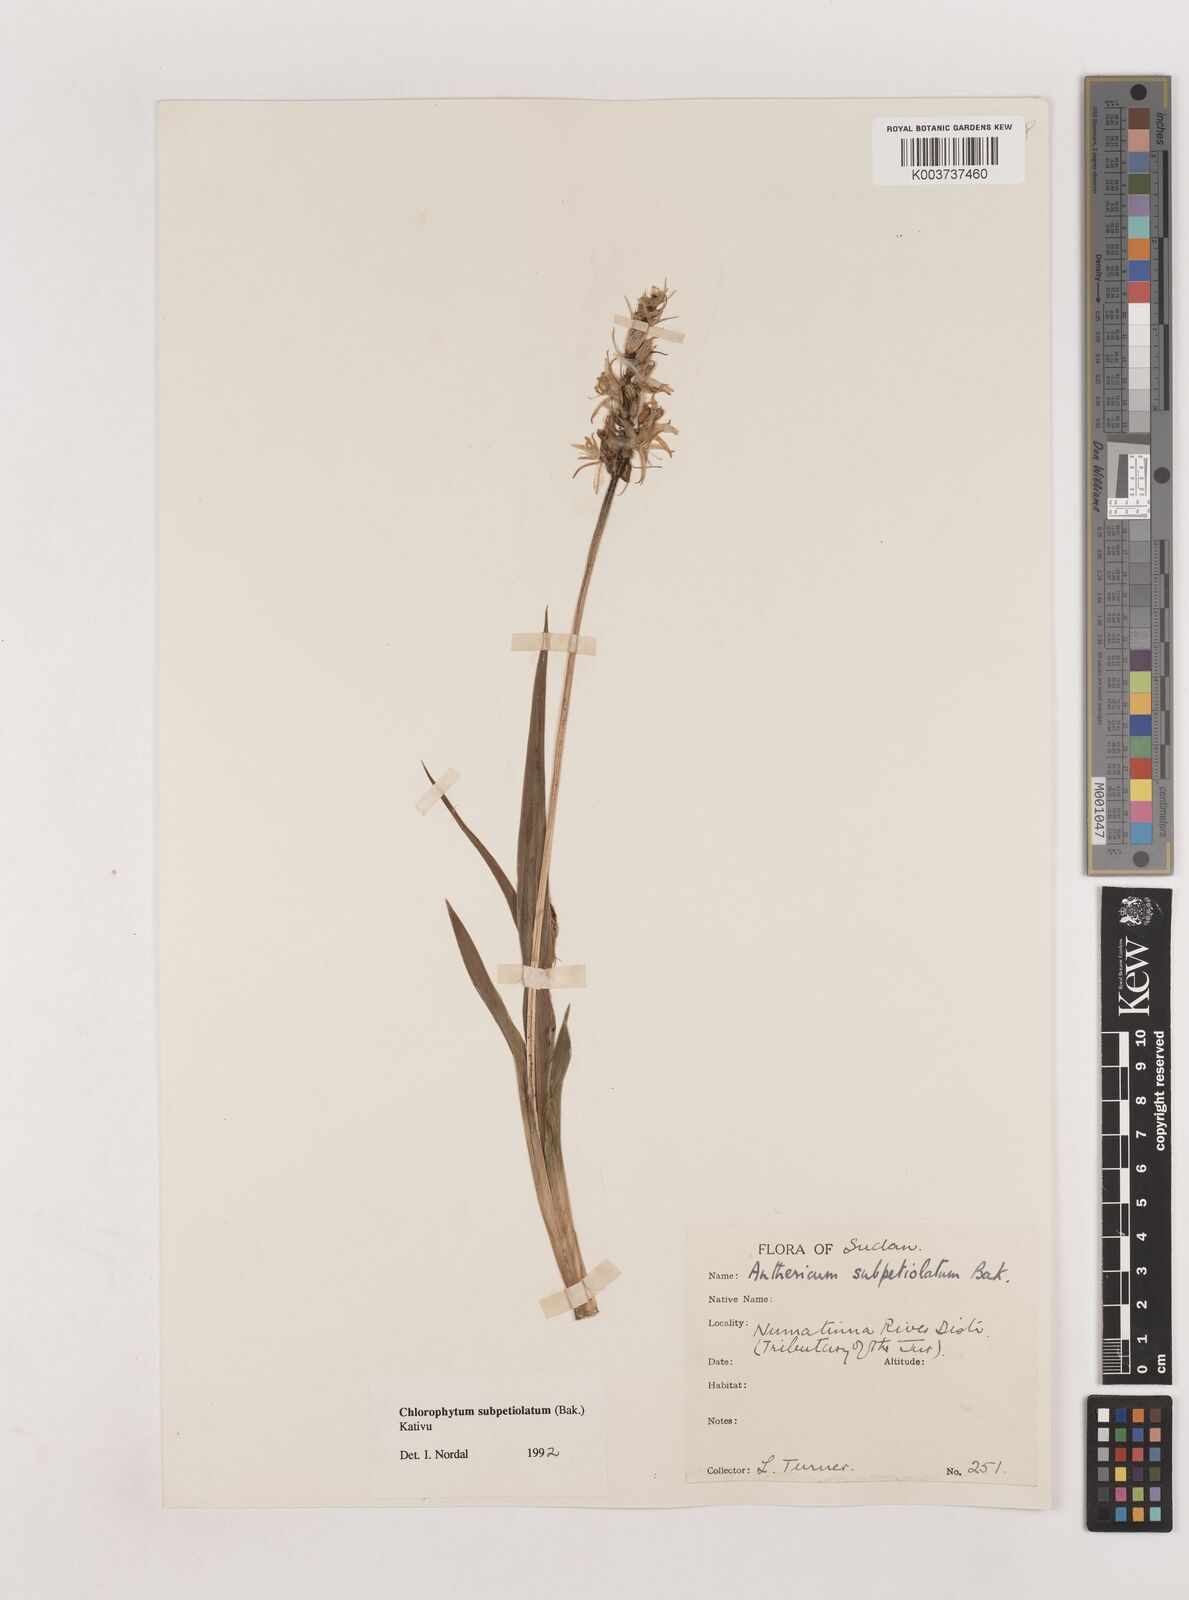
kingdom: Plantae
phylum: Tracheophyta
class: Liliopsida
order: Asparagales
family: Asparagaceae
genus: Chlorophytum
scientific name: Chlorophytum subpetiolatum
